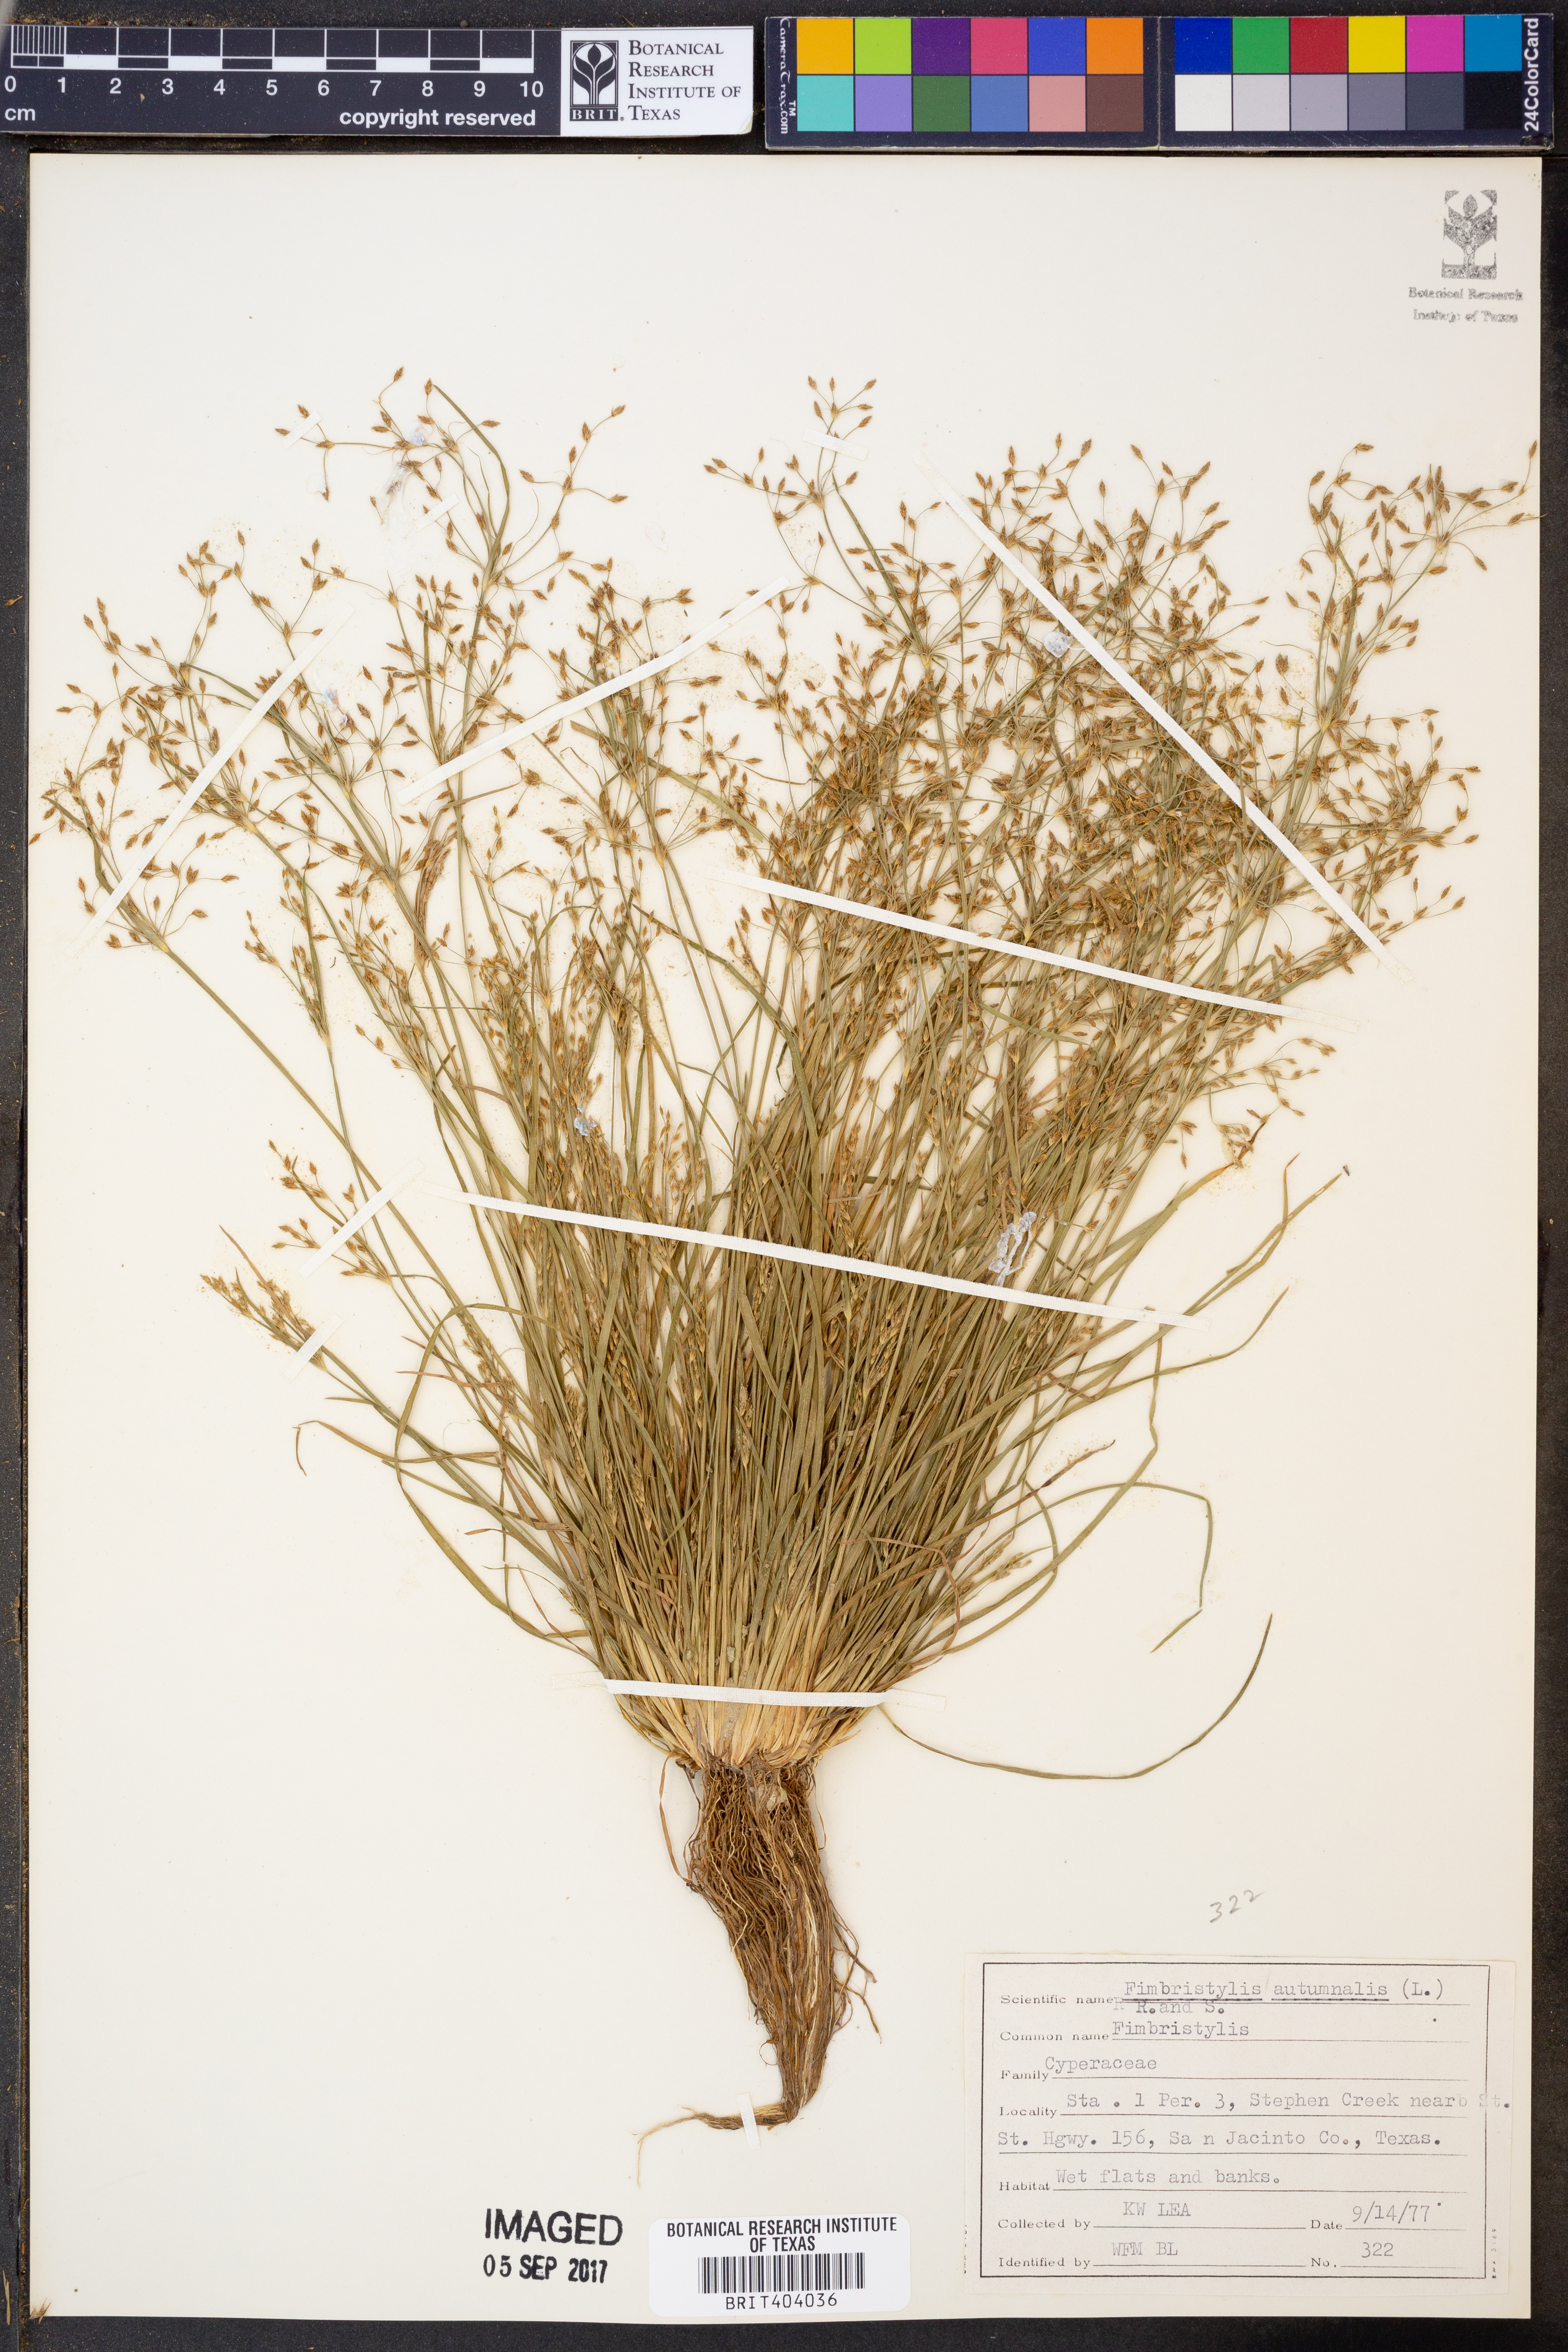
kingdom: Plantae
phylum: Tracheophyta
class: Liliopsida
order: Poales
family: Cyperaceae
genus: Fimbristylis
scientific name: Fimbristylis autumnalis
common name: Slender fimbristylis
